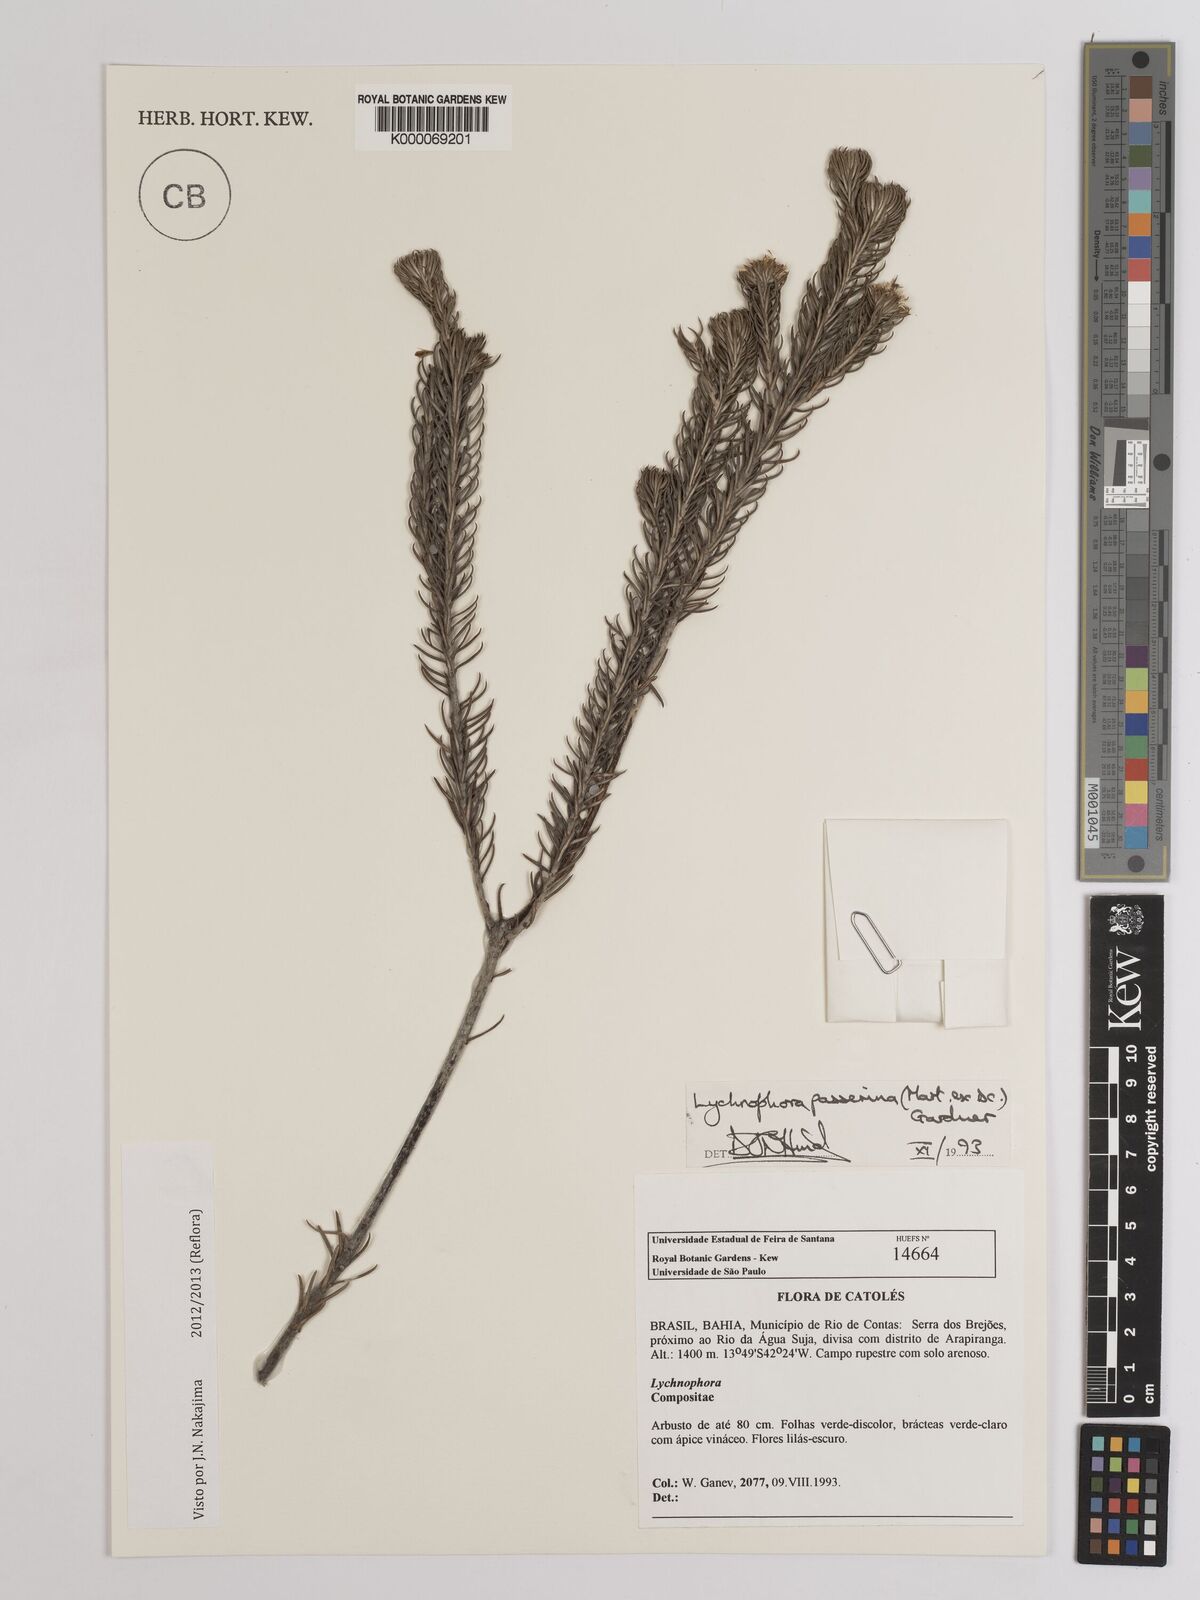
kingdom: Plantae
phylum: Tracheophyta
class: Magnoliopsida
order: Asterales
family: Asteraceae
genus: Lychnophora
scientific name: Lychnophora passerina
